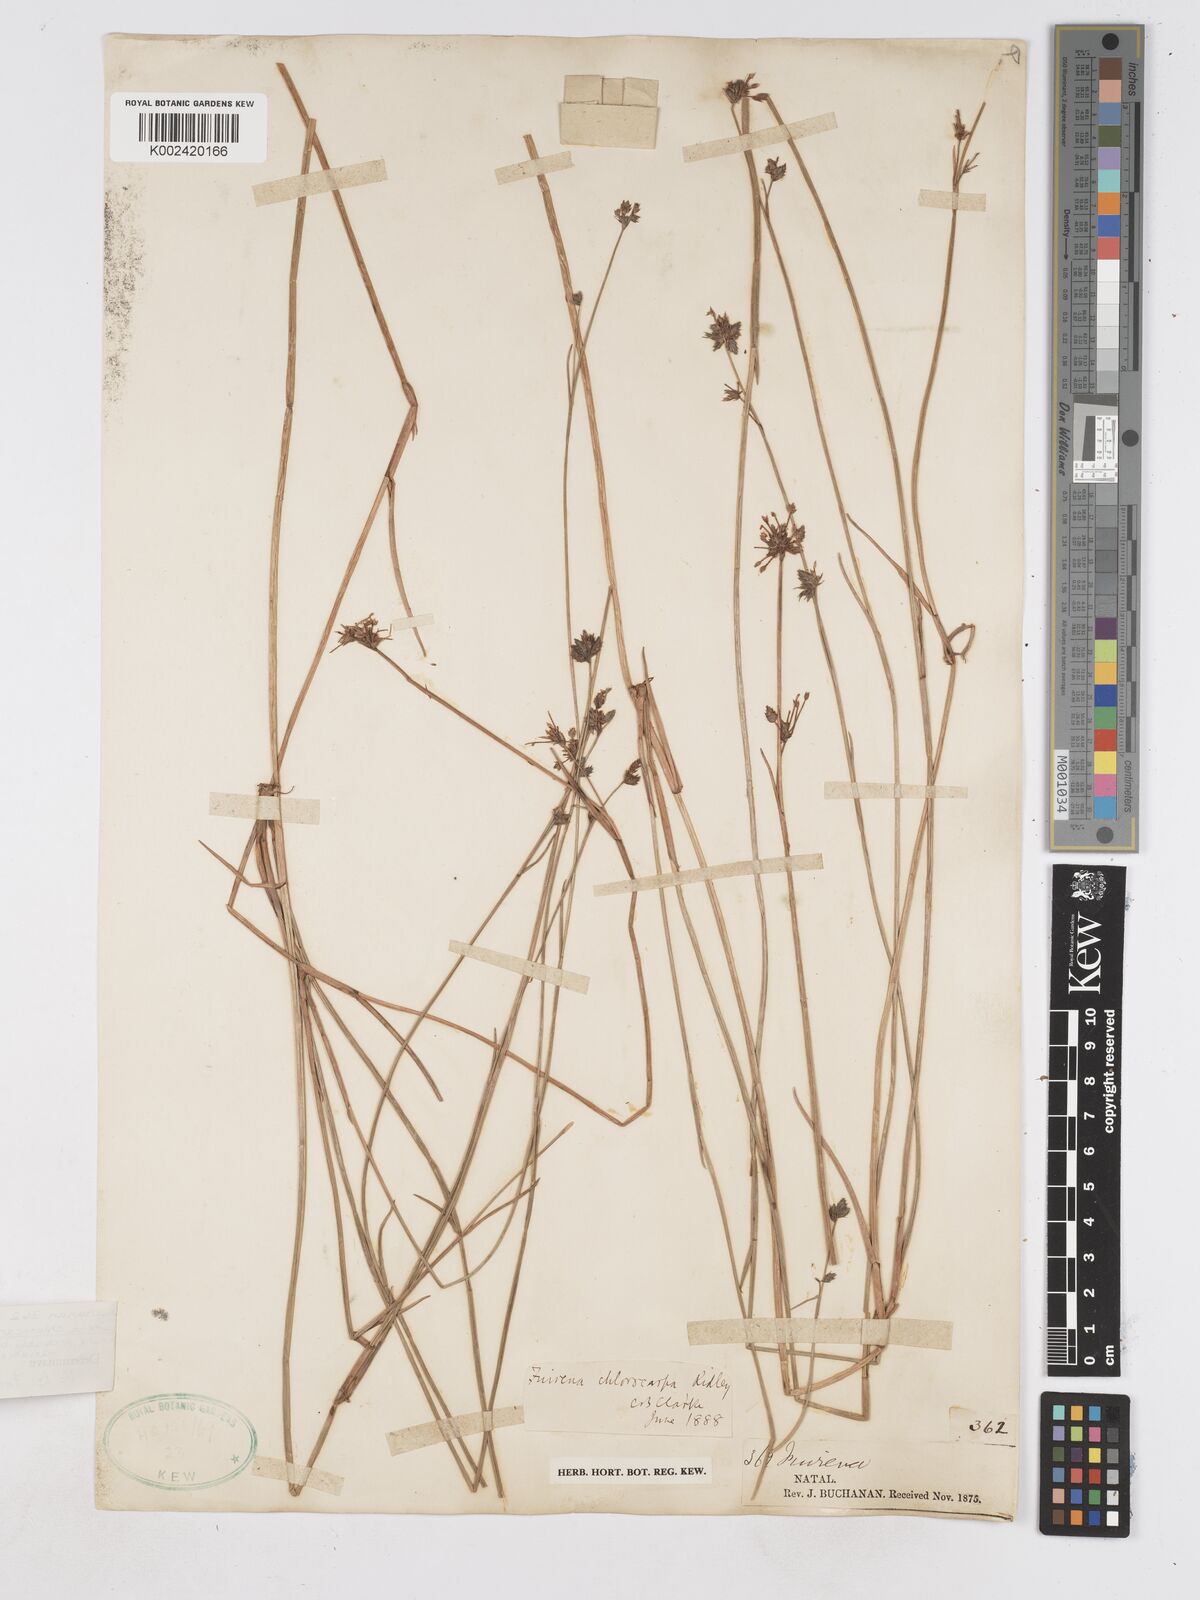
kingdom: Plantae
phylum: Tracheophyta
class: Liliopsida
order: Poales
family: Cyperaceae
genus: Fuirena
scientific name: Fuirena stricta
